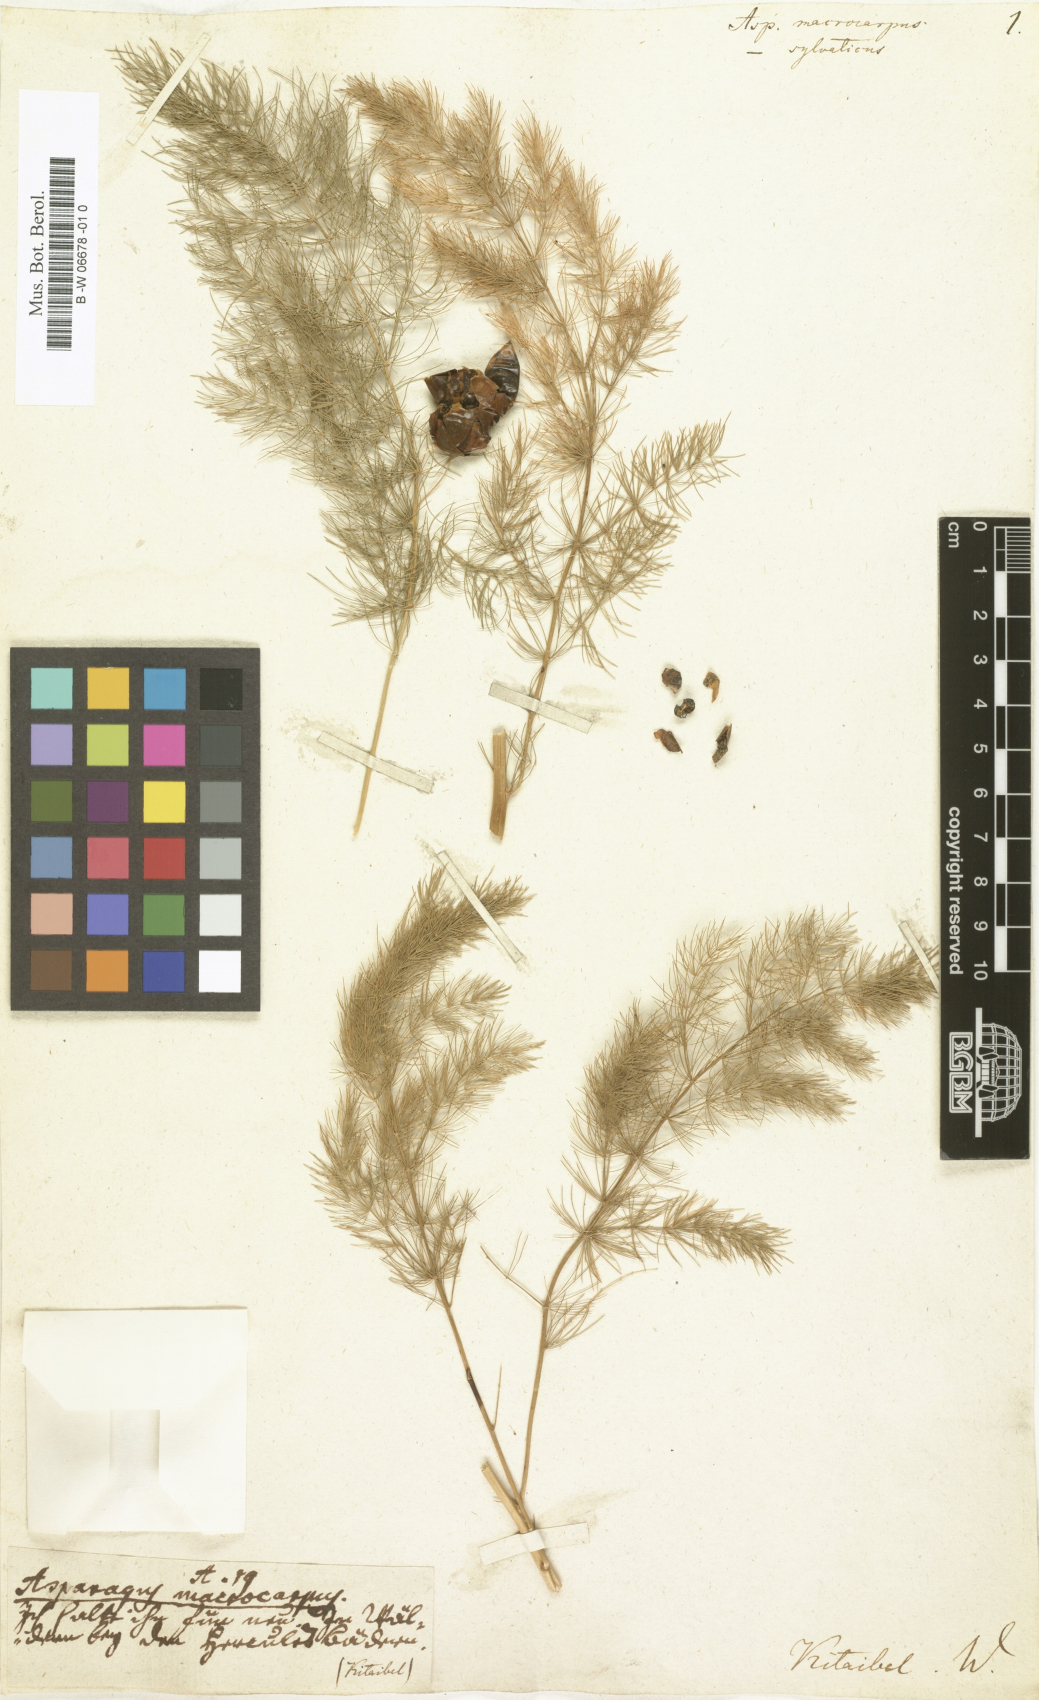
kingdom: Plantae
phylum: Tracheophyta
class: Liliopsida
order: Asparagales
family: Asparagaceae
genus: Asparagus
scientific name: Asparagus macrocarpus
